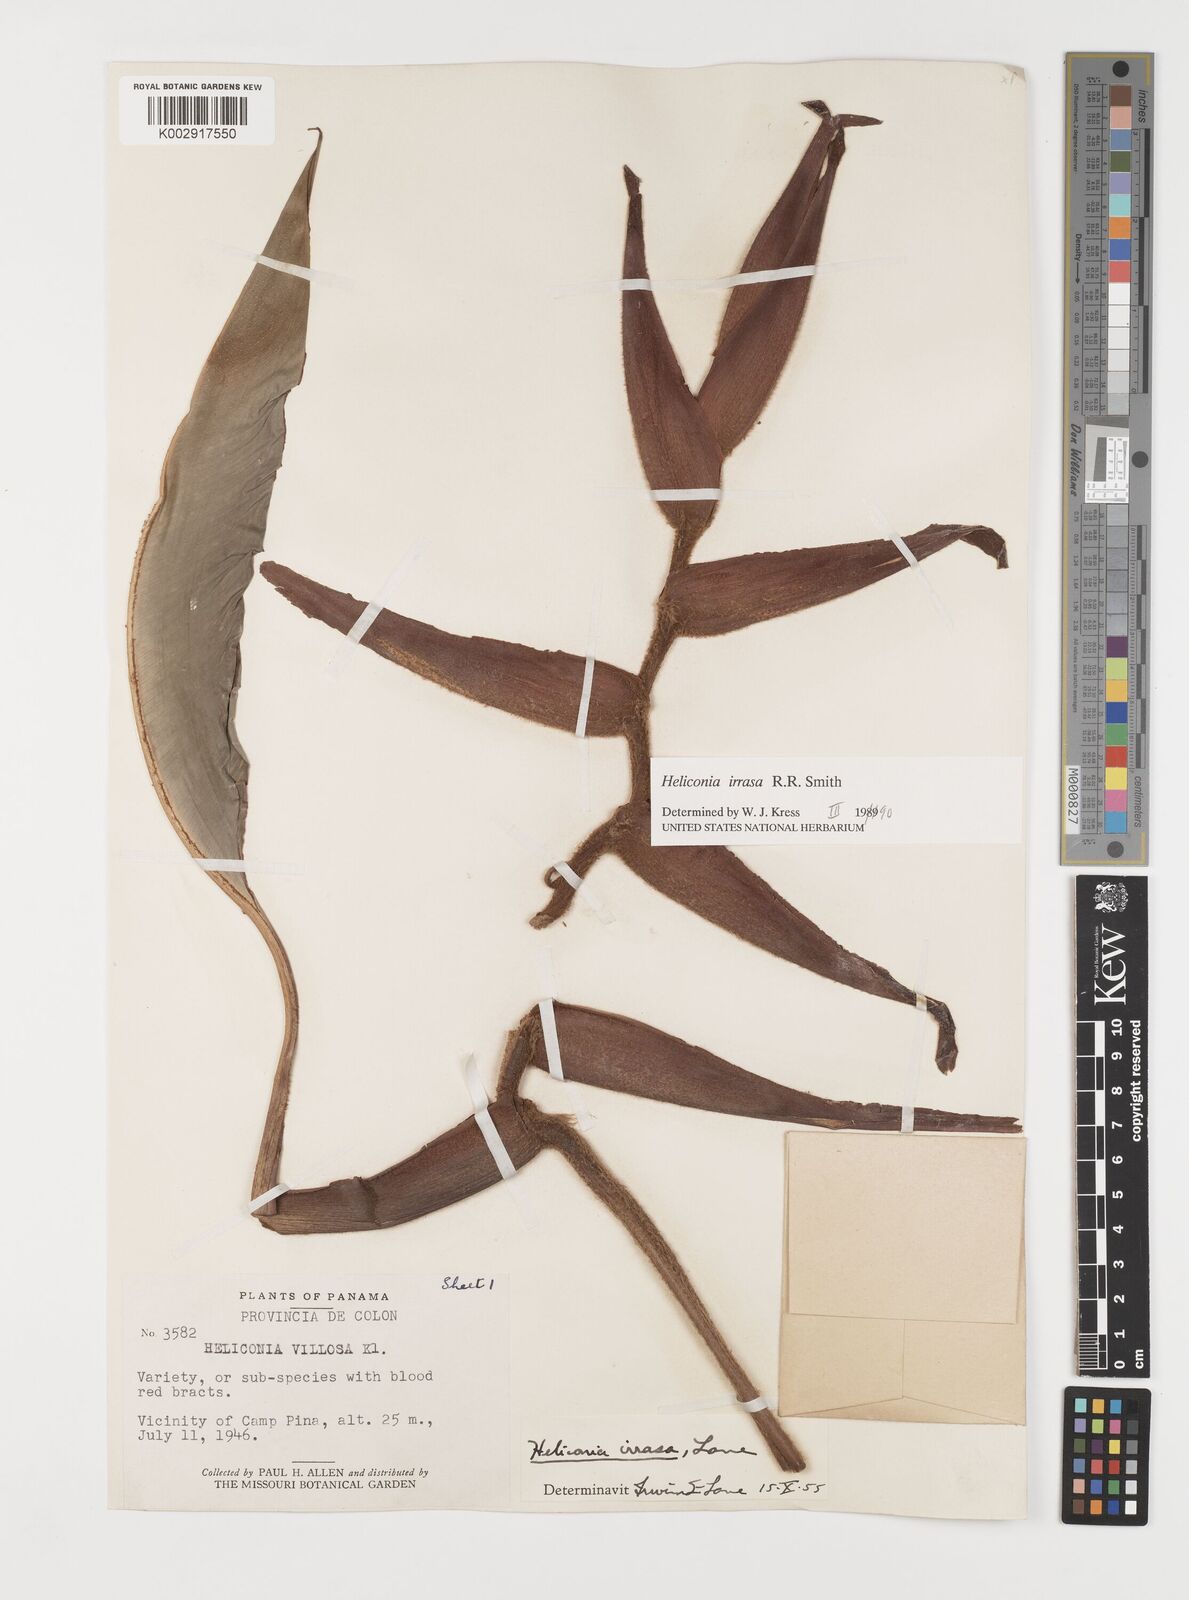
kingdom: Plantae
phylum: Tracheophyta
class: Liliopsida
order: Zingiberales
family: Heliconiaceae
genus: Heliconia
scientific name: Heliconia irrasa
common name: Wild plantain
